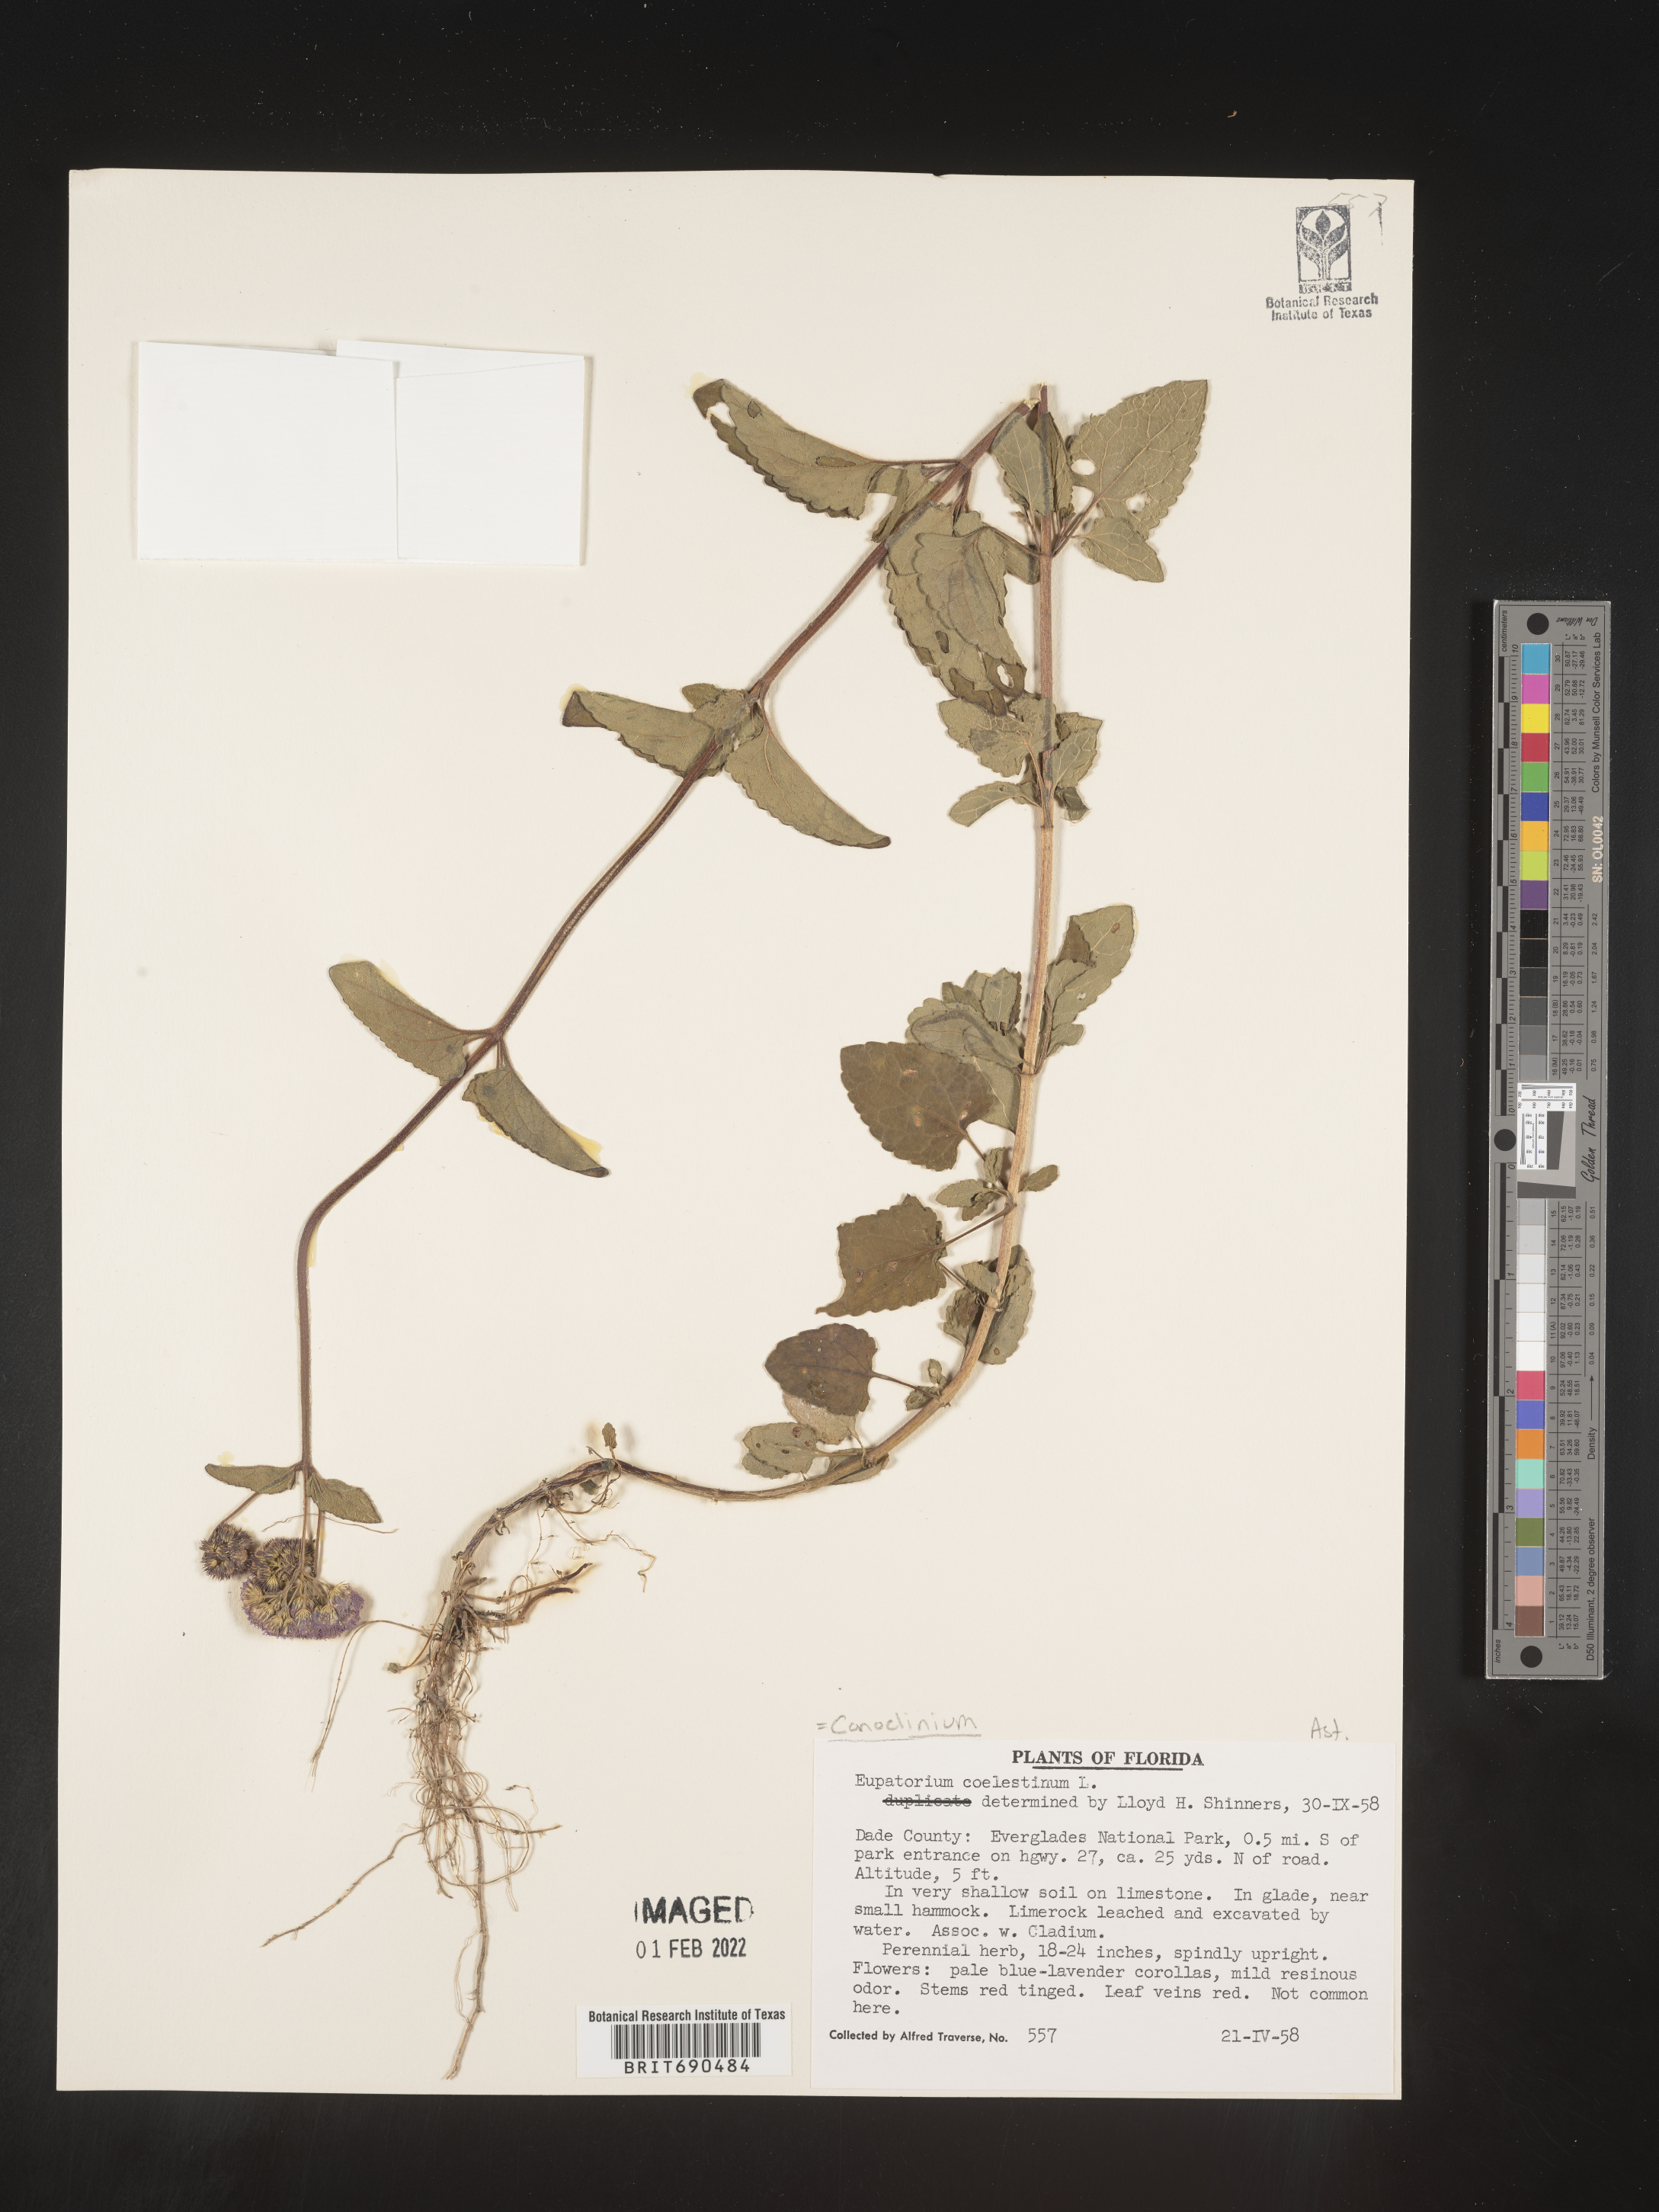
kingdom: Plantae
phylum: Tracheophyta
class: Magnoliopsida
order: Asterales
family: Asteraceae
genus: Conoclinium
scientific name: Conoclinium coelestinum
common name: Blue mistflower
